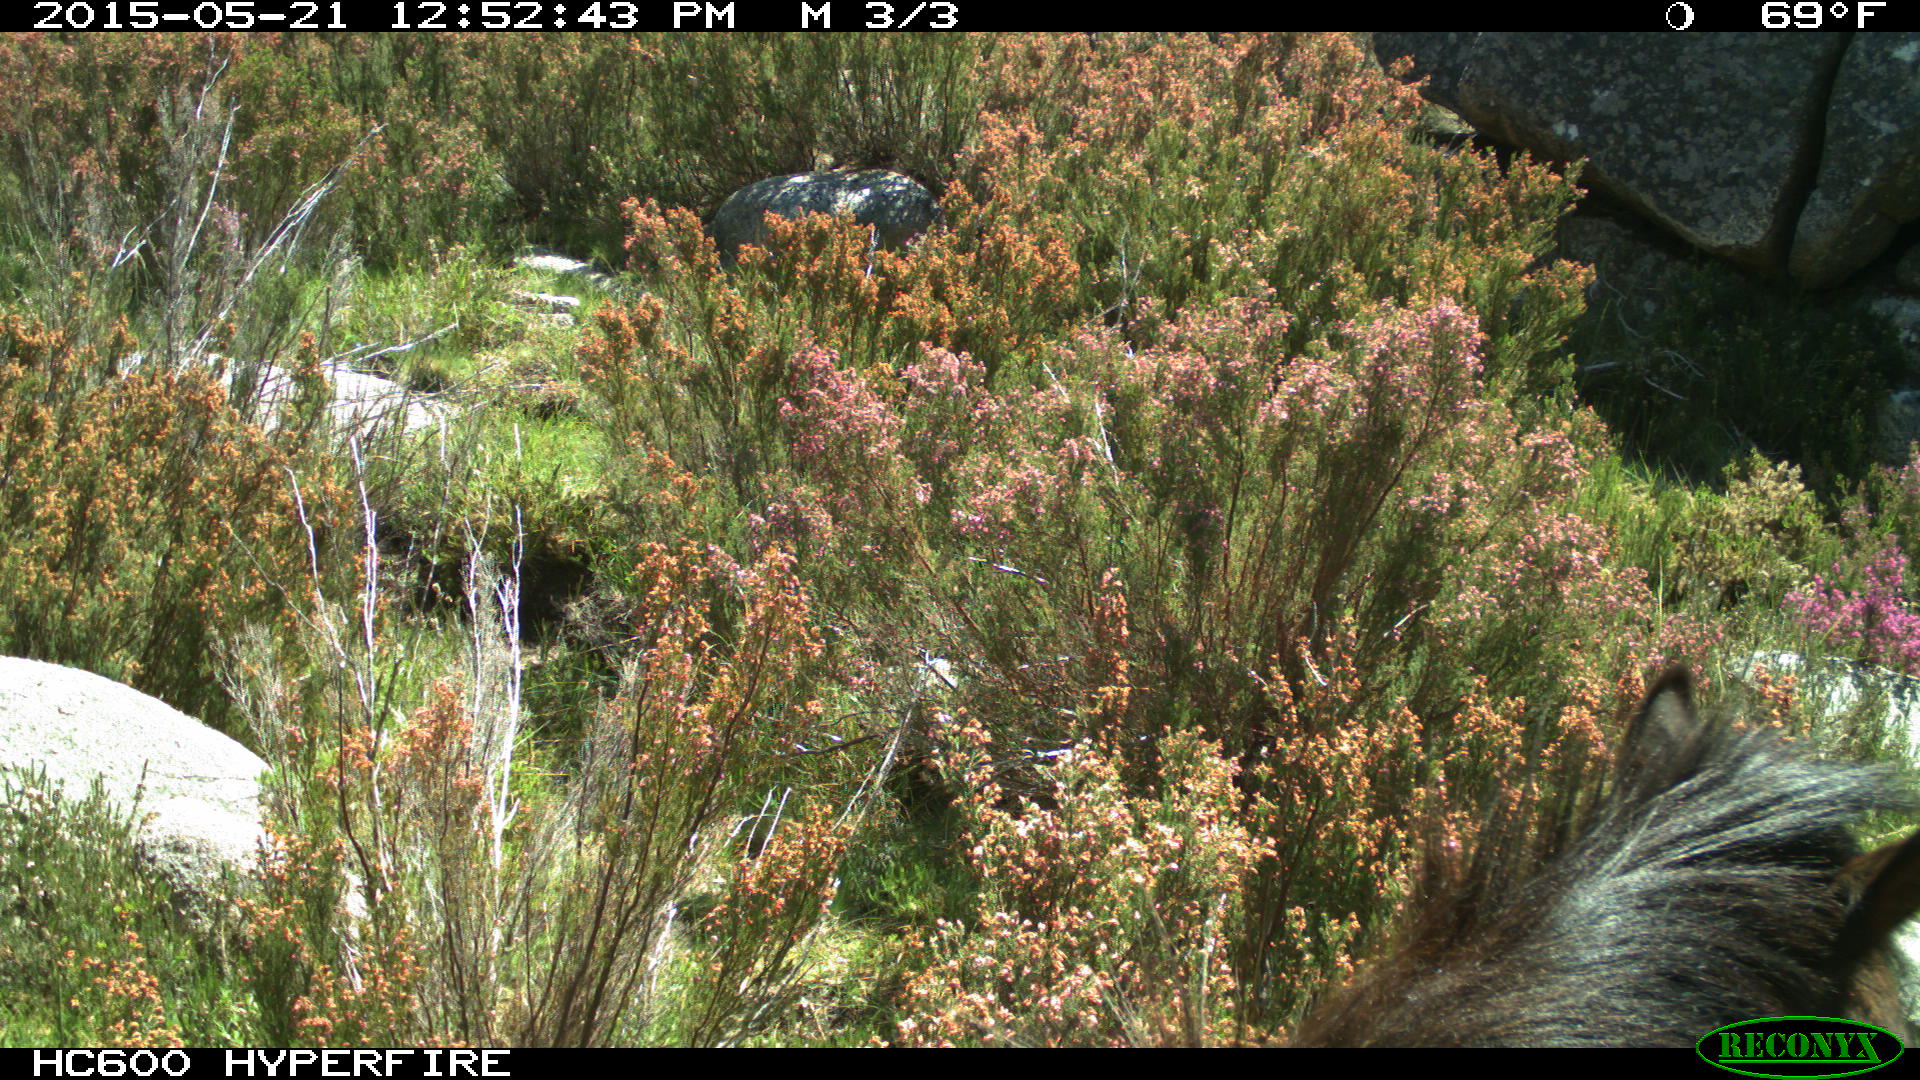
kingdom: Animalia
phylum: Chordata
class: Mammalia
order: Perissodactyla
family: Equidae
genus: Equus
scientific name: Equus caballus
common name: Horse
